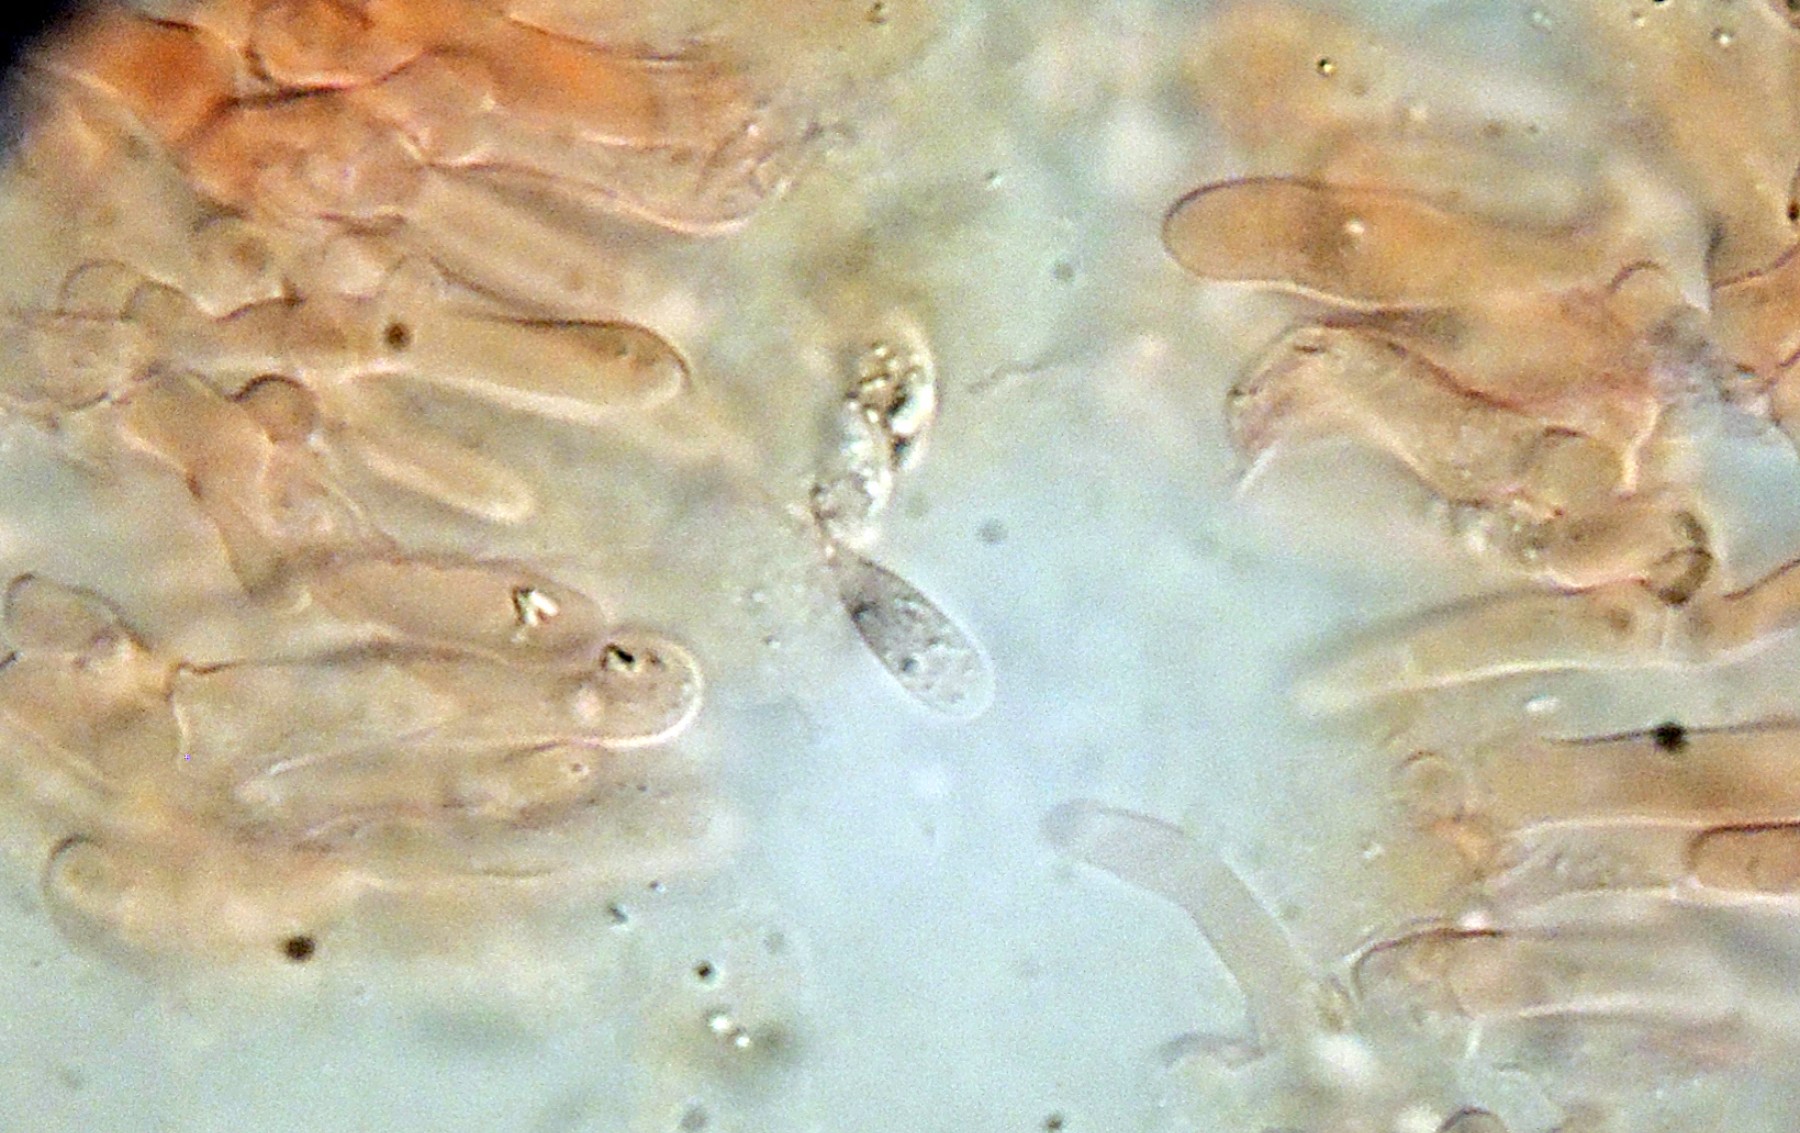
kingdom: Fungi
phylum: Basidiomycota
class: Agaricomycetes
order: Agaricales
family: Omphalotaceae
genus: Marasmiellus
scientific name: Marasmiellus humillimus
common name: liden bruskhat
